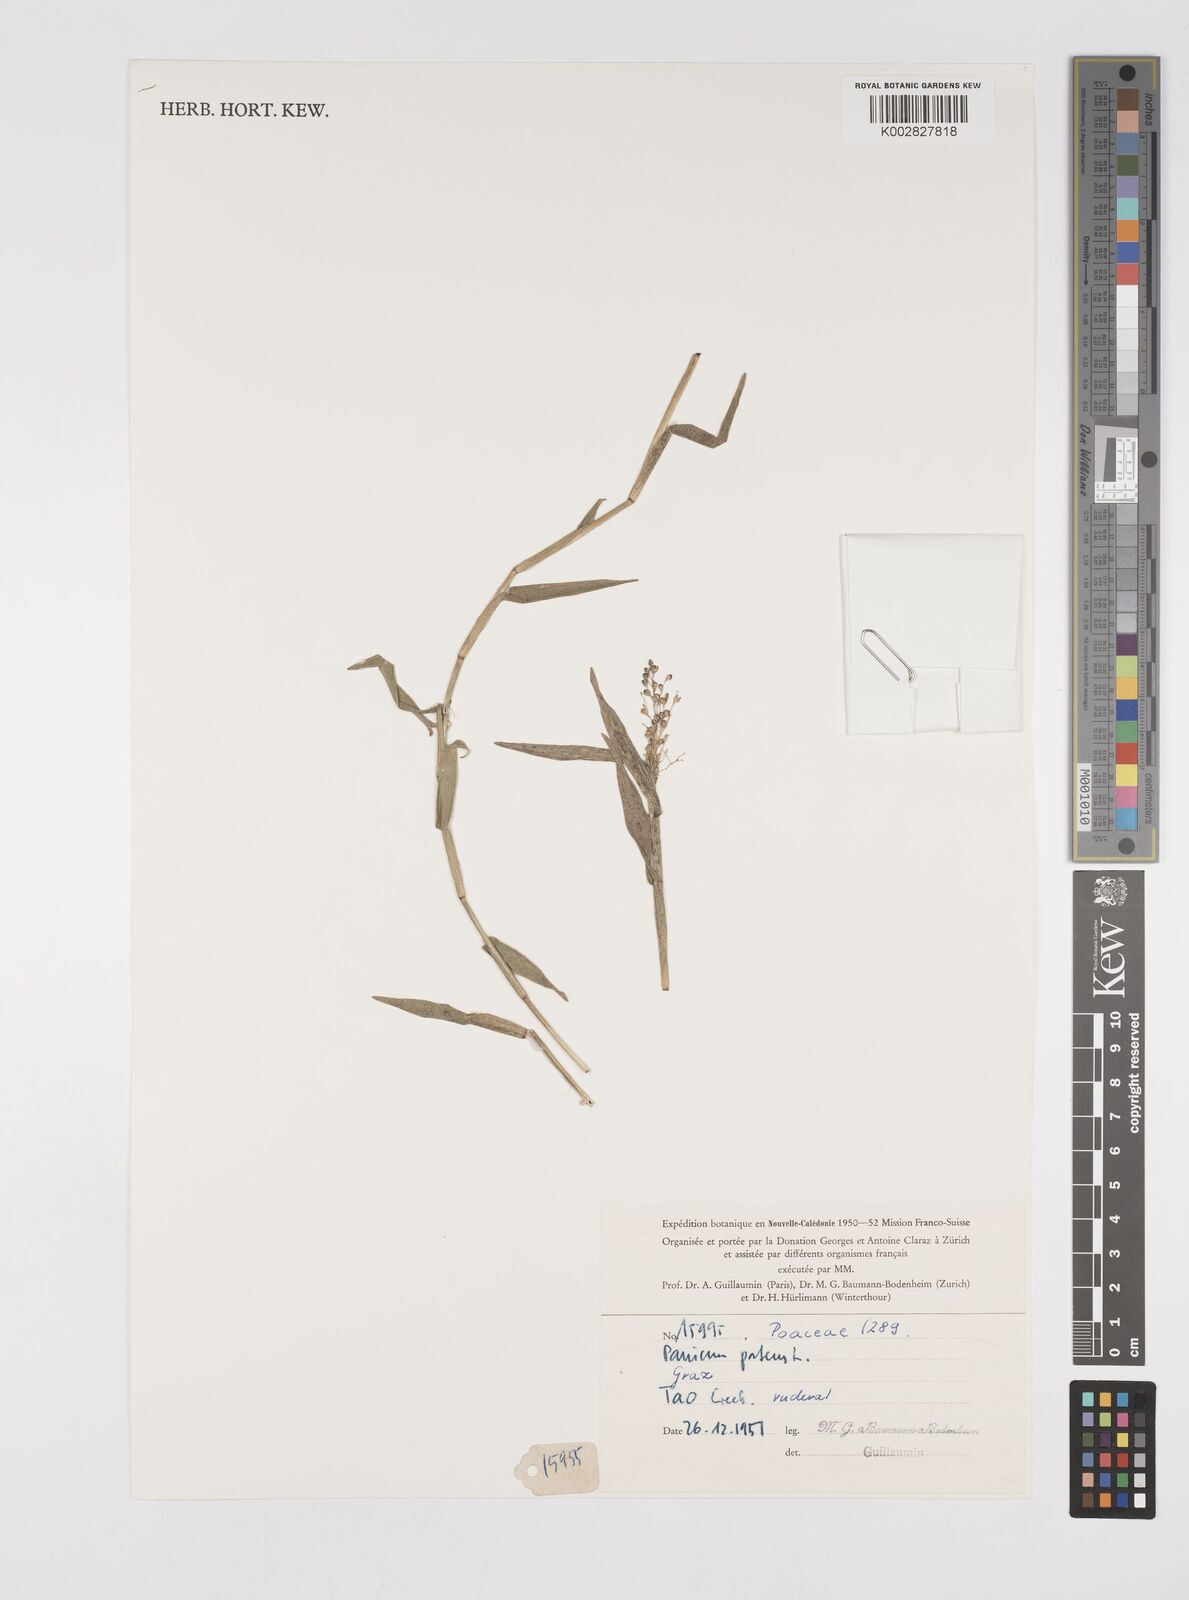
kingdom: Plantae
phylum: Tracheophyta
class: Liliopsida
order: Poales
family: Poaceae
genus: Cyrtococcum
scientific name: Cyrtococcum patens
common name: Broad-leaved bowgrass
